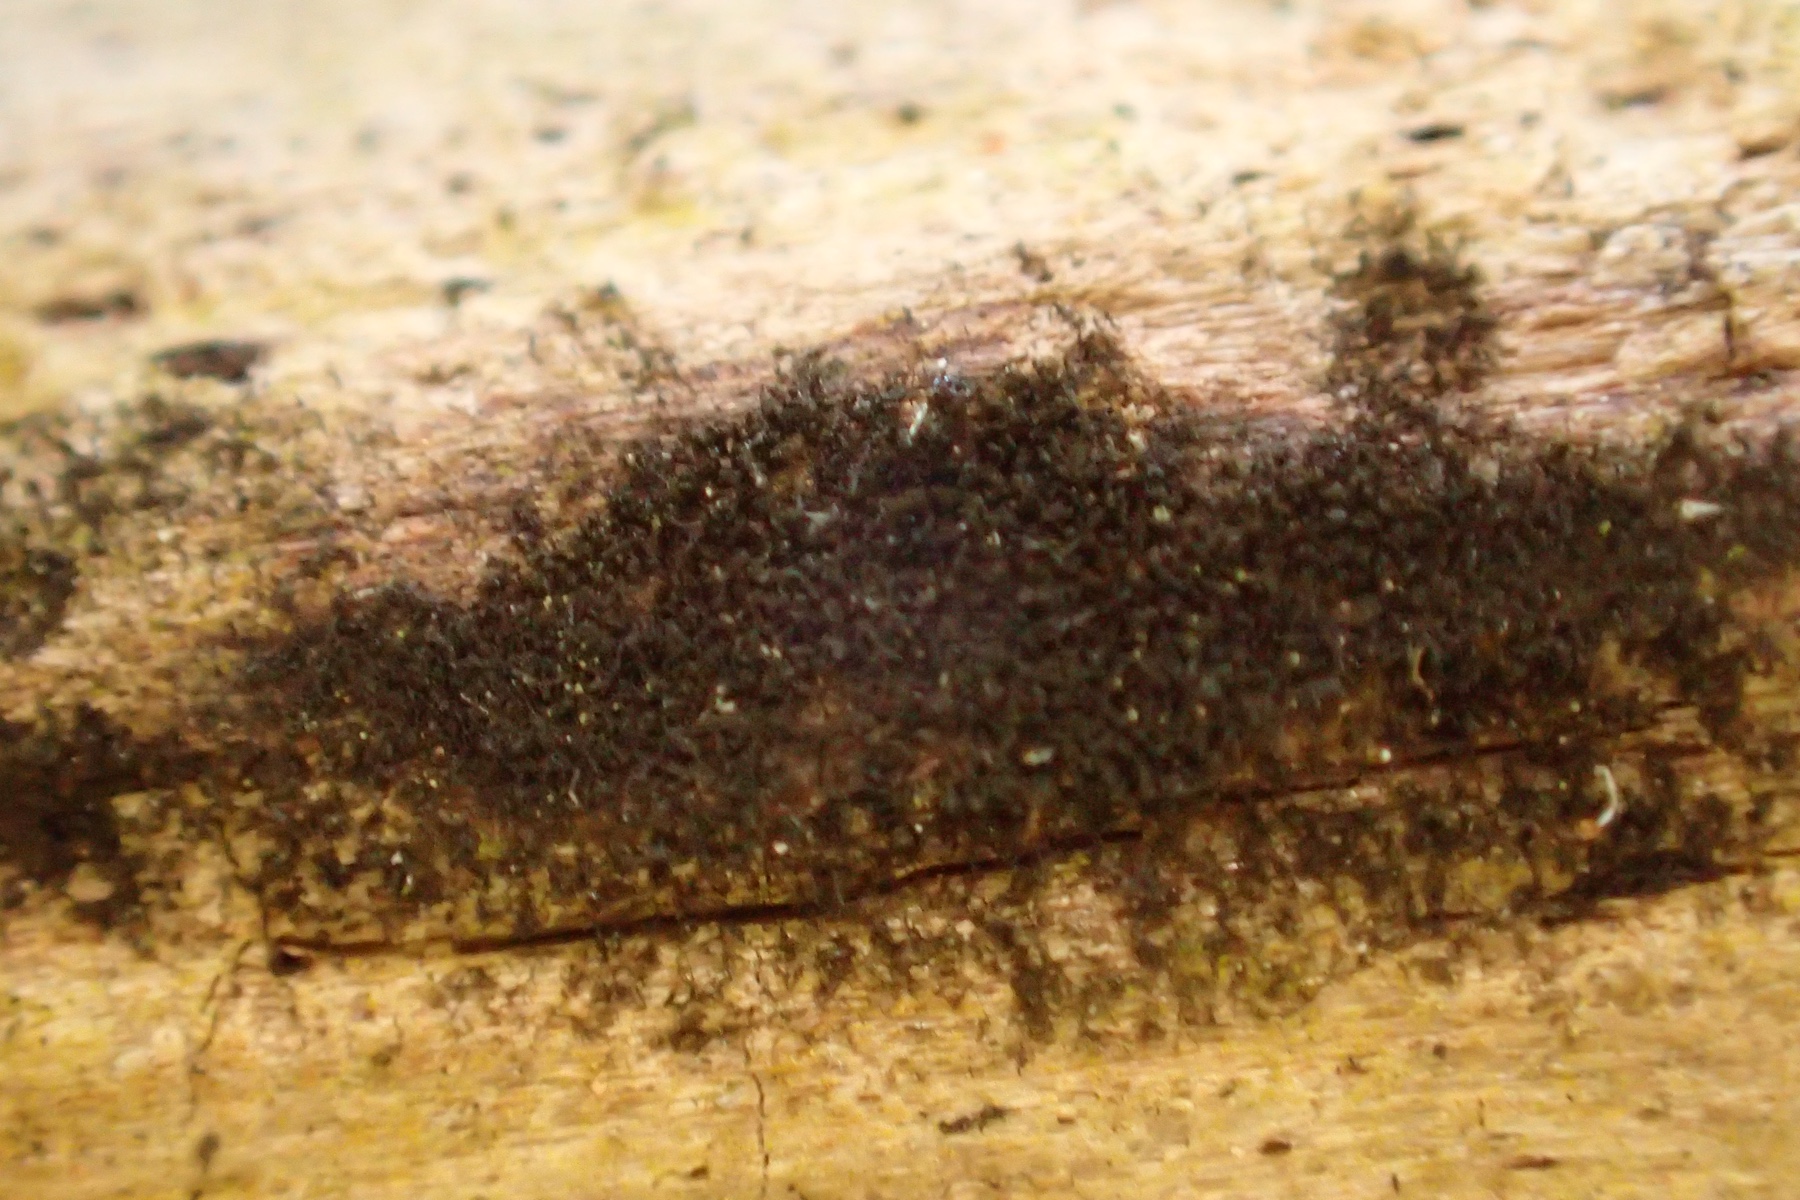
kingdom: Fungi
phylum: Ascomycota
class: Dothideomycetes
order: Mytilinidiales
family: Mytilinidiaceae
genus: Taeniolella
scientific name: Taeniolella stilbospora
